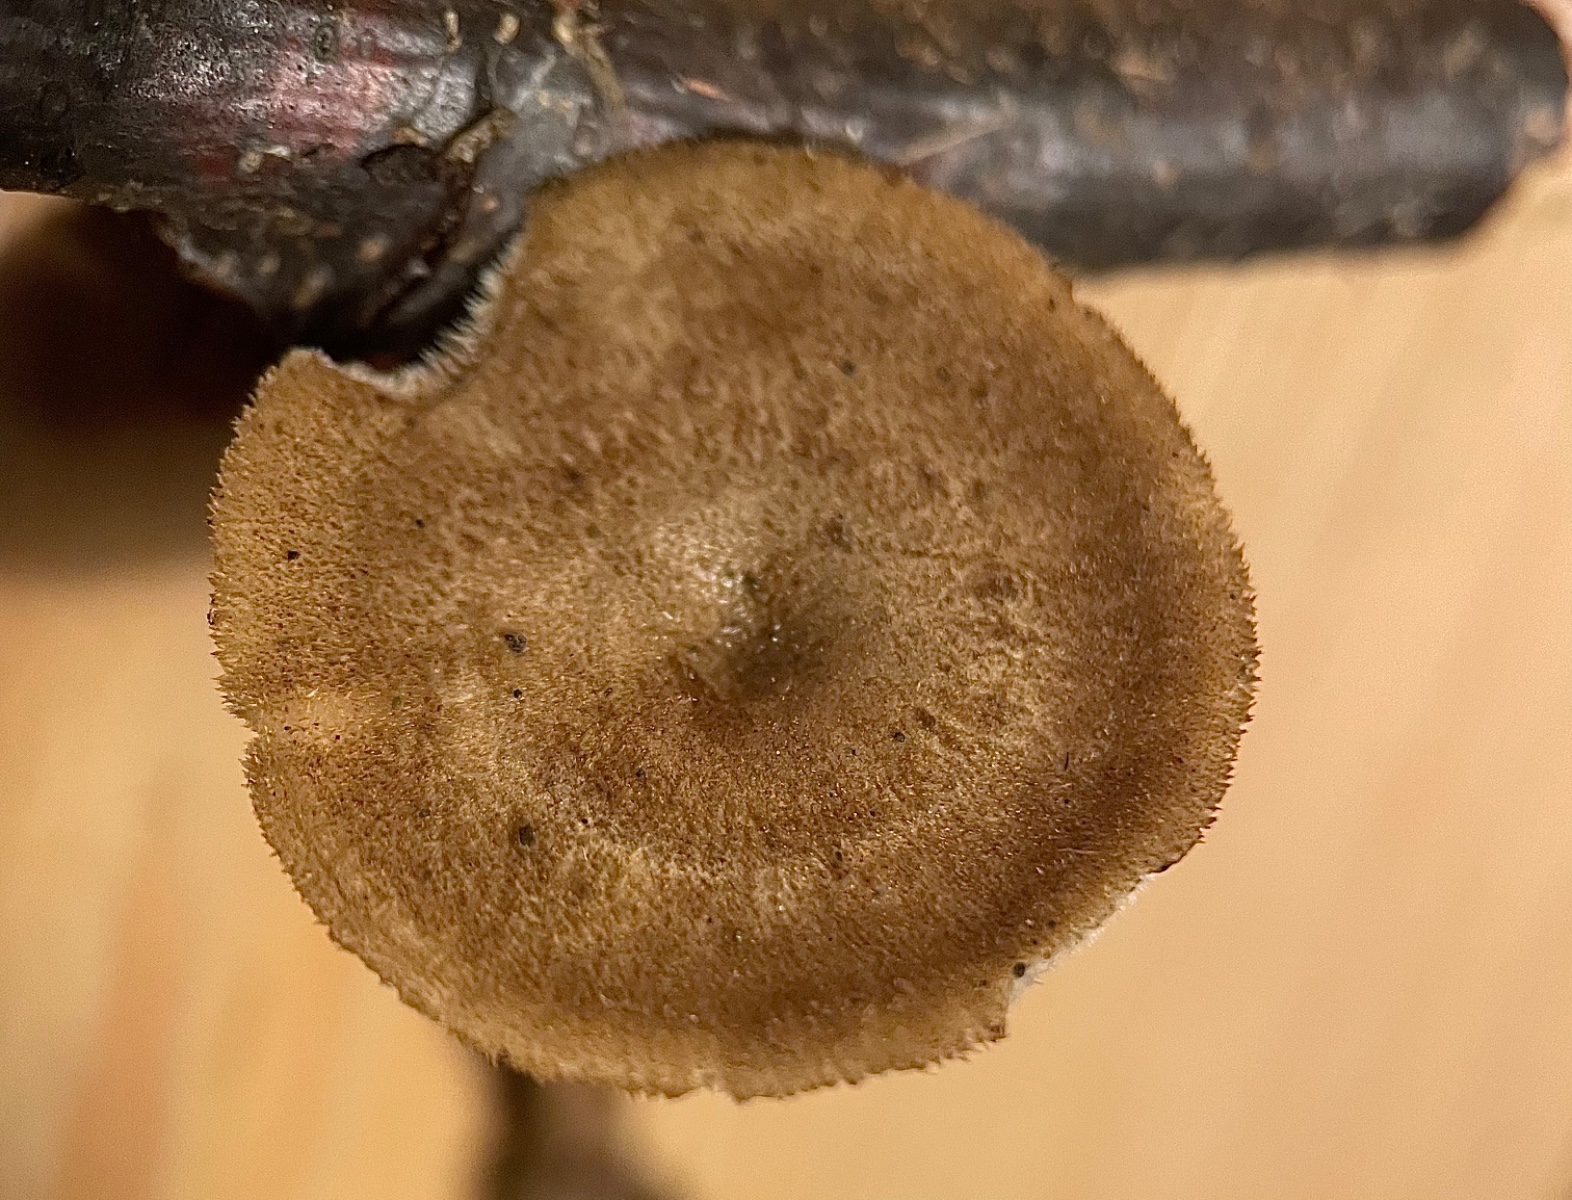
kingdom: Fungi
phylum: Basidiomycota
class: Agaricomycetes
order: Polyporales
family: Polyporaceae
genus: Lentinus
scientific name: Lentinus brumalis
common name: vinter-stilkporesvamp
